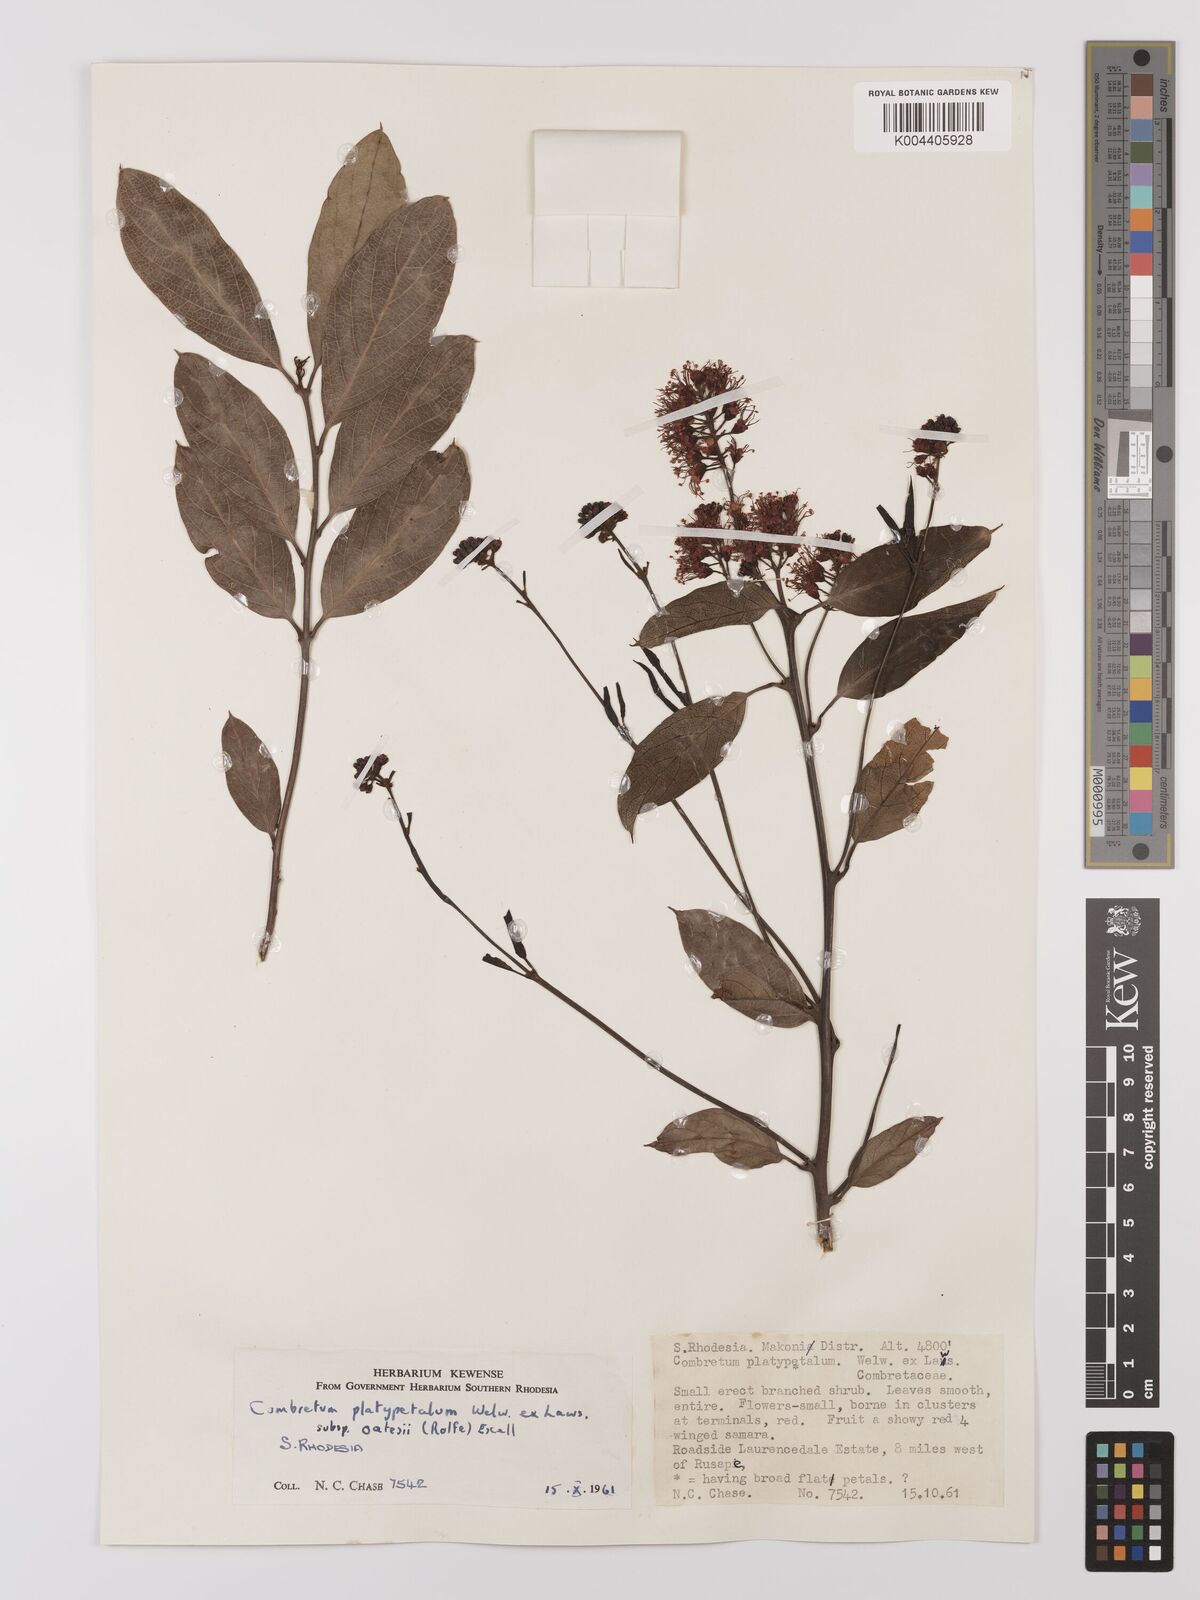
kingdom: Plantae
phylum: Tracheophyta
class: Magnoliopsida
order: Myrtales
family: Combretaceae
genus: Combretum
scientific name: Combretum platypetalum
